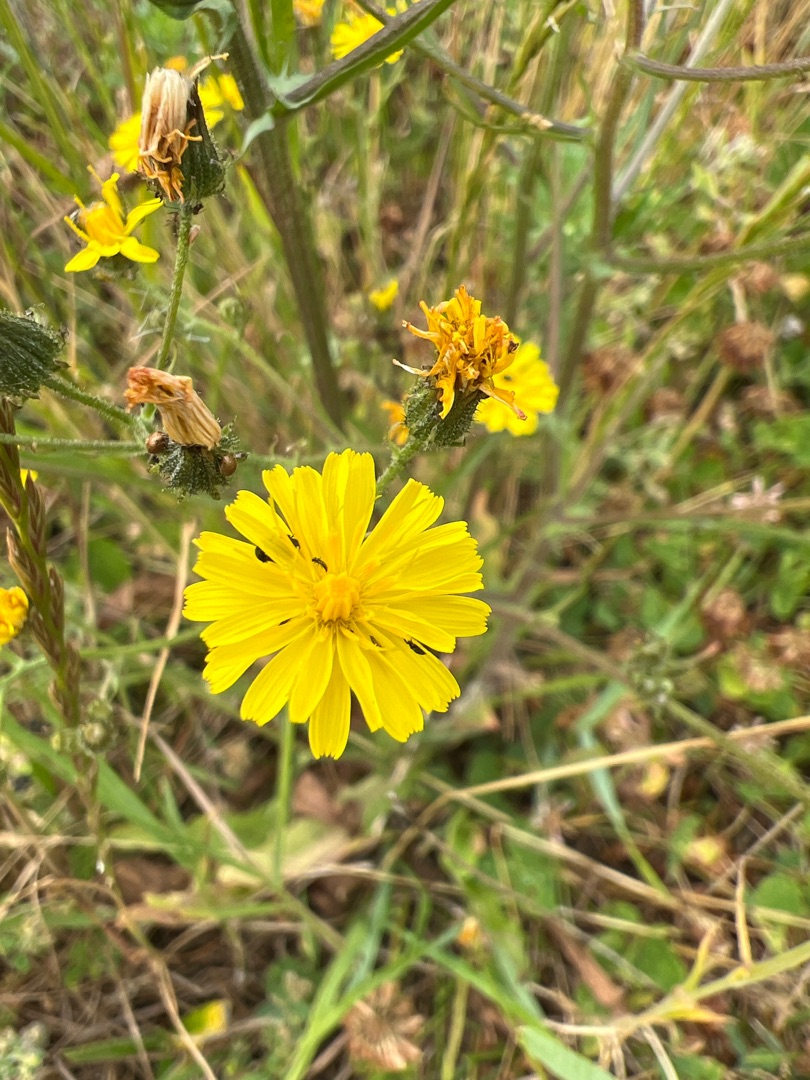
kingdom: Plantae
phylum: Tracheophyta
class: Magnoliopsida
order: Asterales
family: Asteraceae
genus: Crepis
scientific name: Crepis capillaris
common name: Grøn høgeskæg
